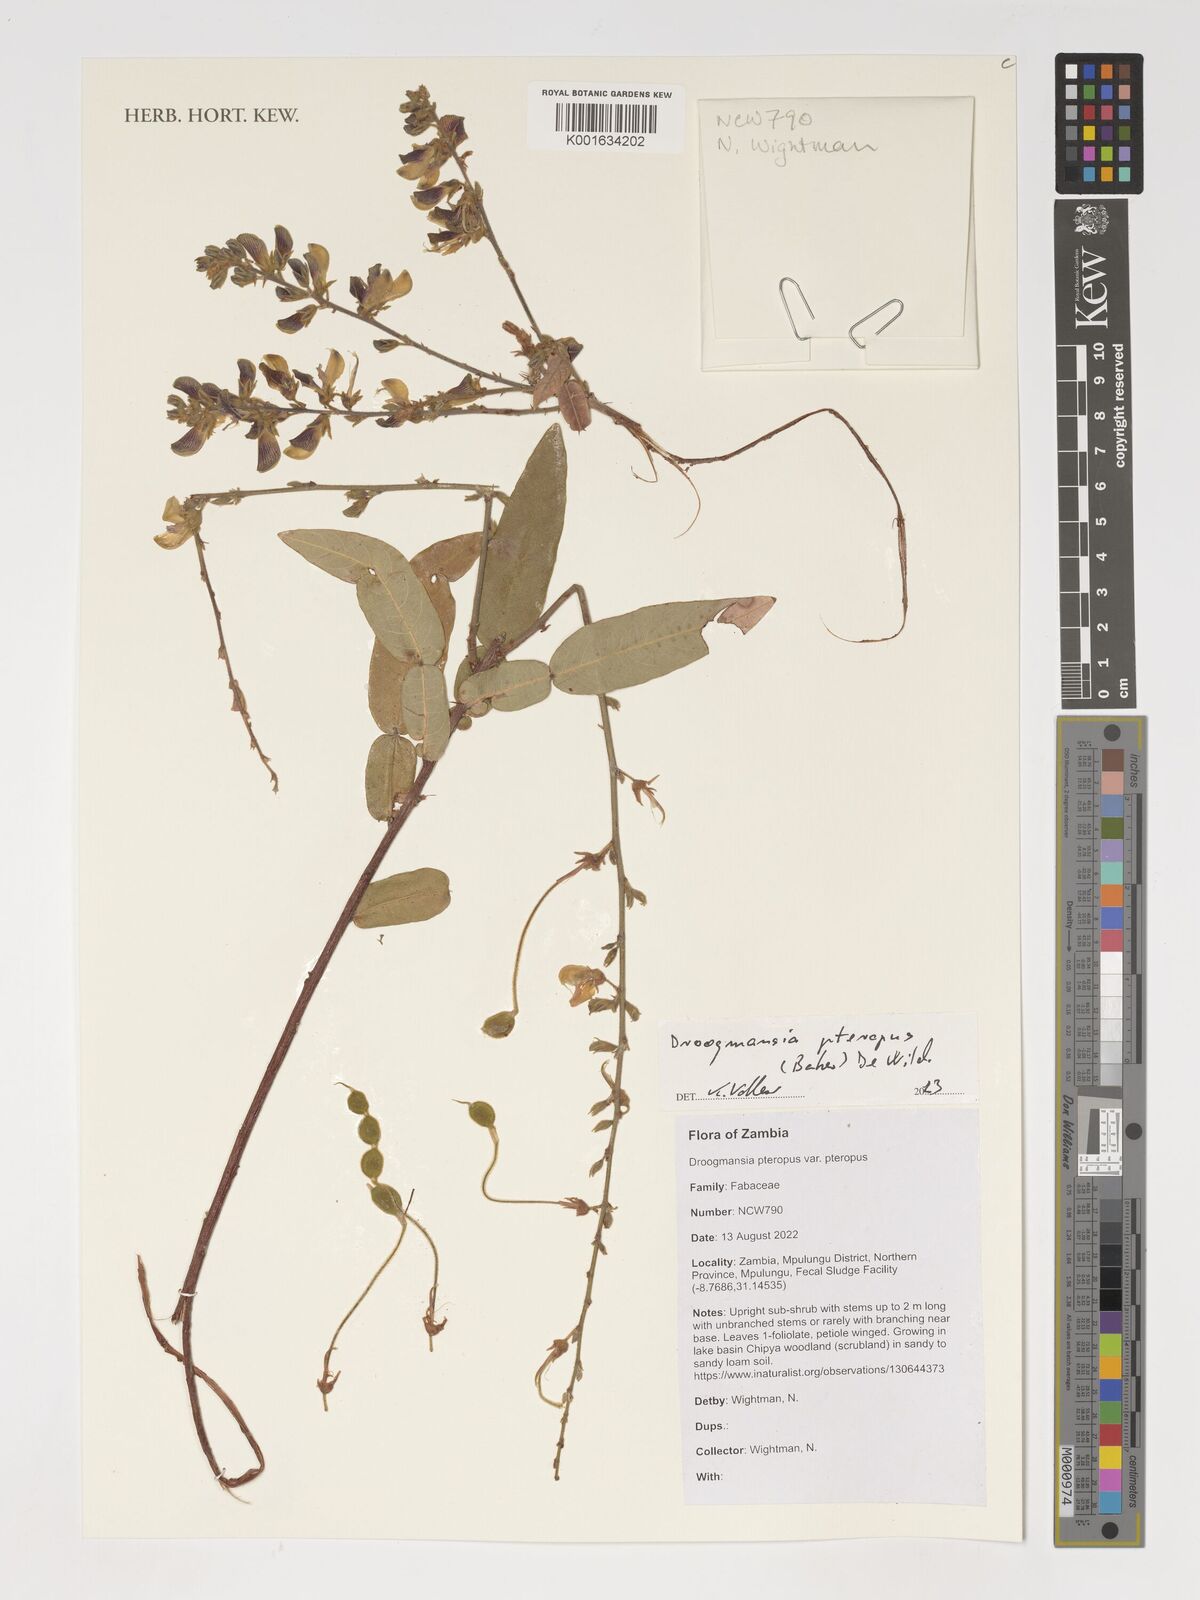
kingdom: Plantae
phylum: Tracheophyta
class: Magnoliopsida
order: Fabales
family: Fabaceae
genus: Droogmansia
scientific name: Droogmansia pteropus
